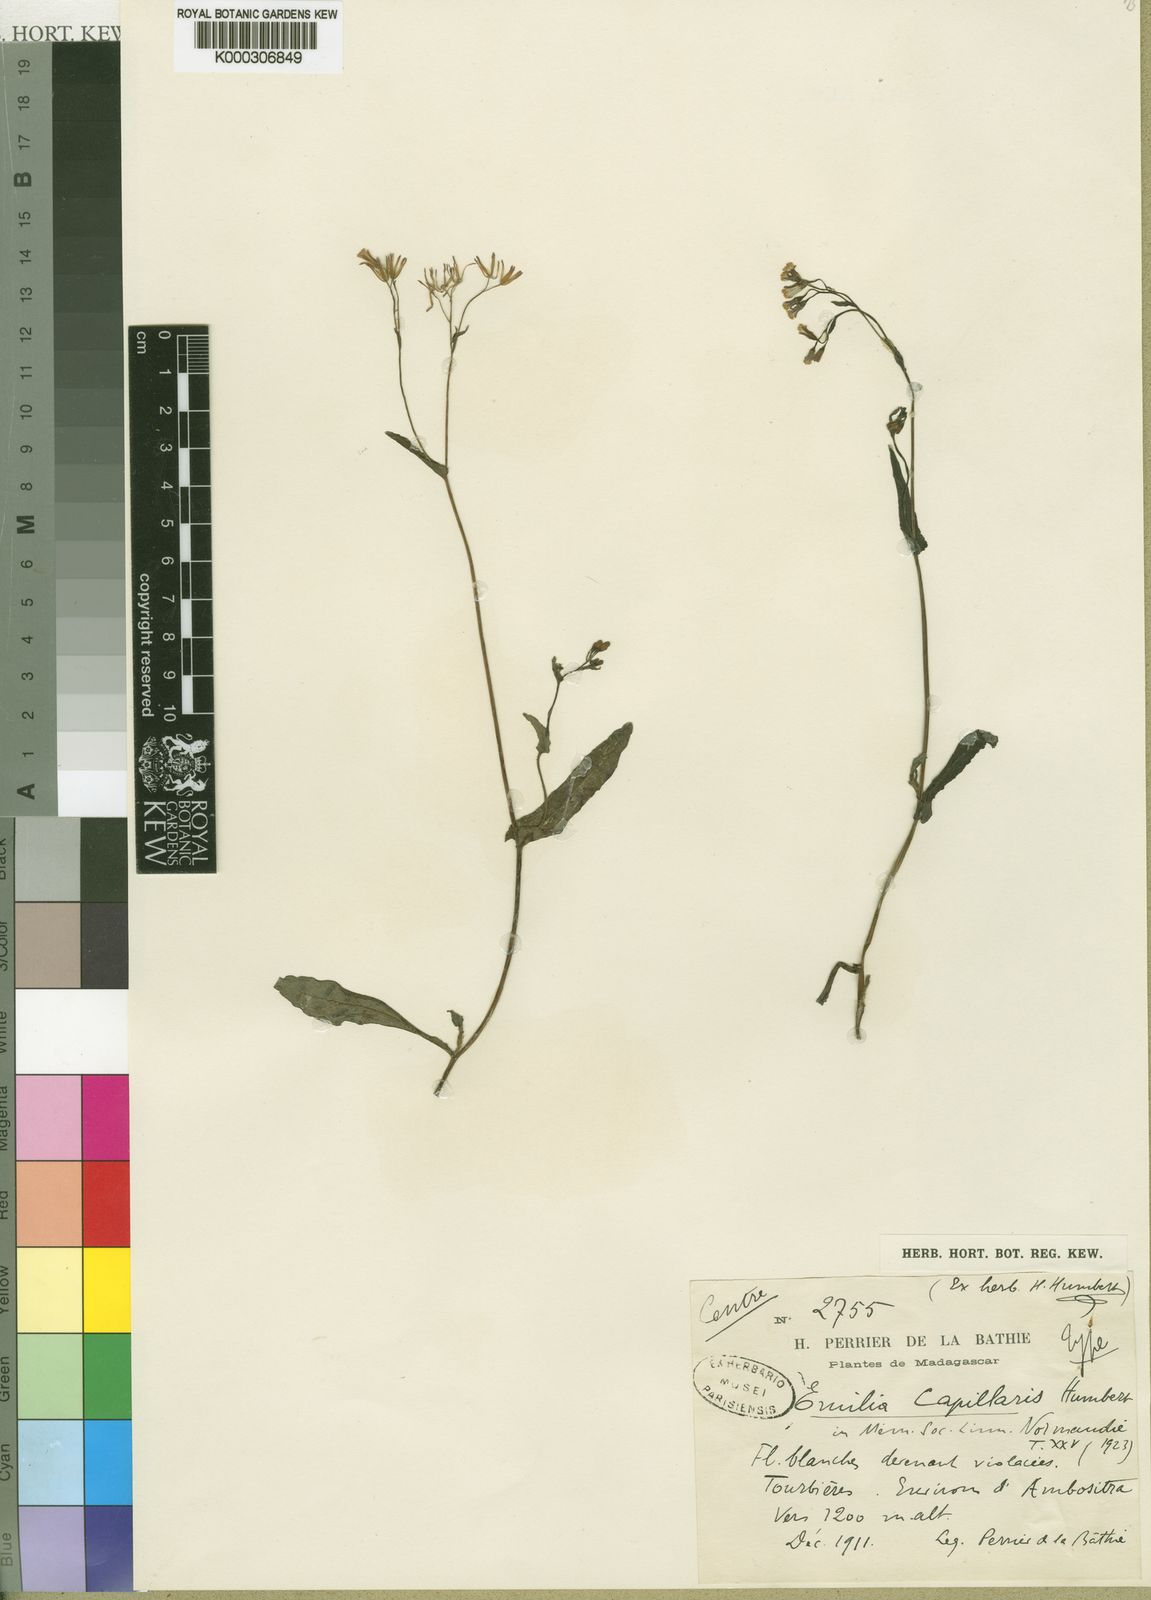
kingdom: Plantae
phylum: Tracheophyta
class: Magnoliopsida
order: Asterales
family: Asteraceae
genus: Emilia
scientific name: Emilia capillaris
